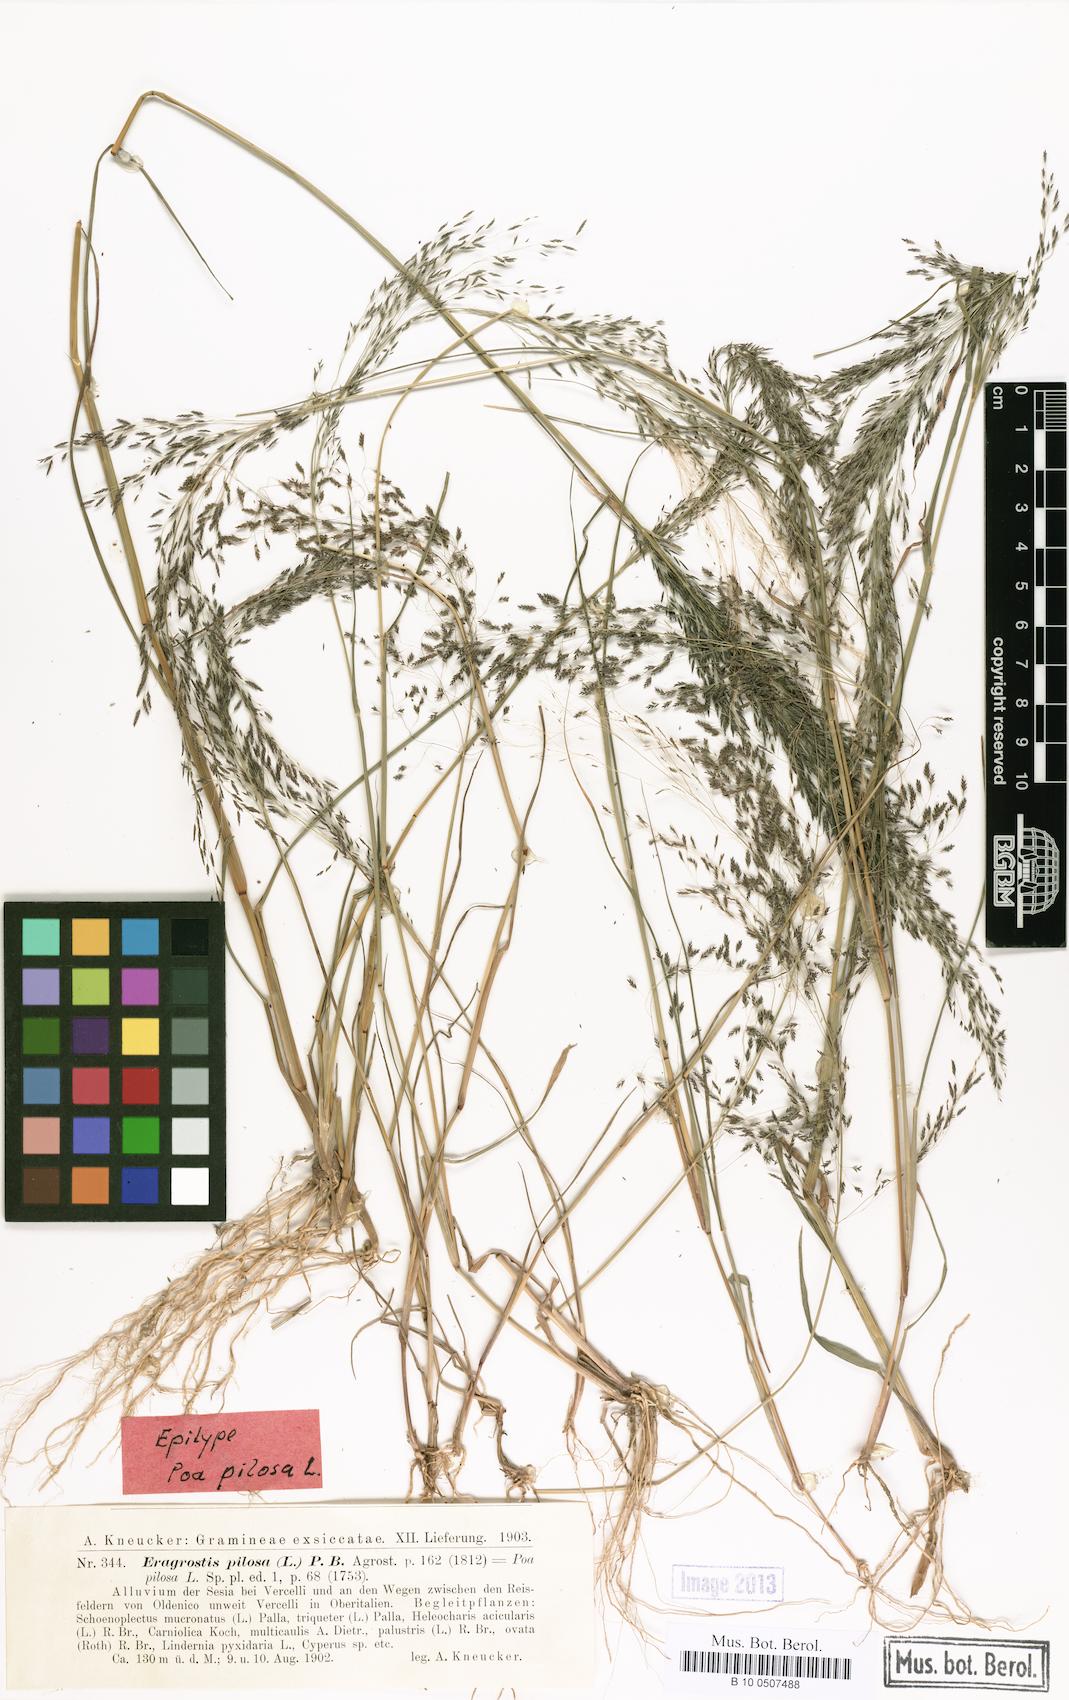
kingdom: Plantae
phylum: Tracheophyta
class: Liliopsida
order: Poales
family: Poaceae
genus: Eragrostis
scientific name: Eragrostis pilosa
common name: Indian lovegrass
